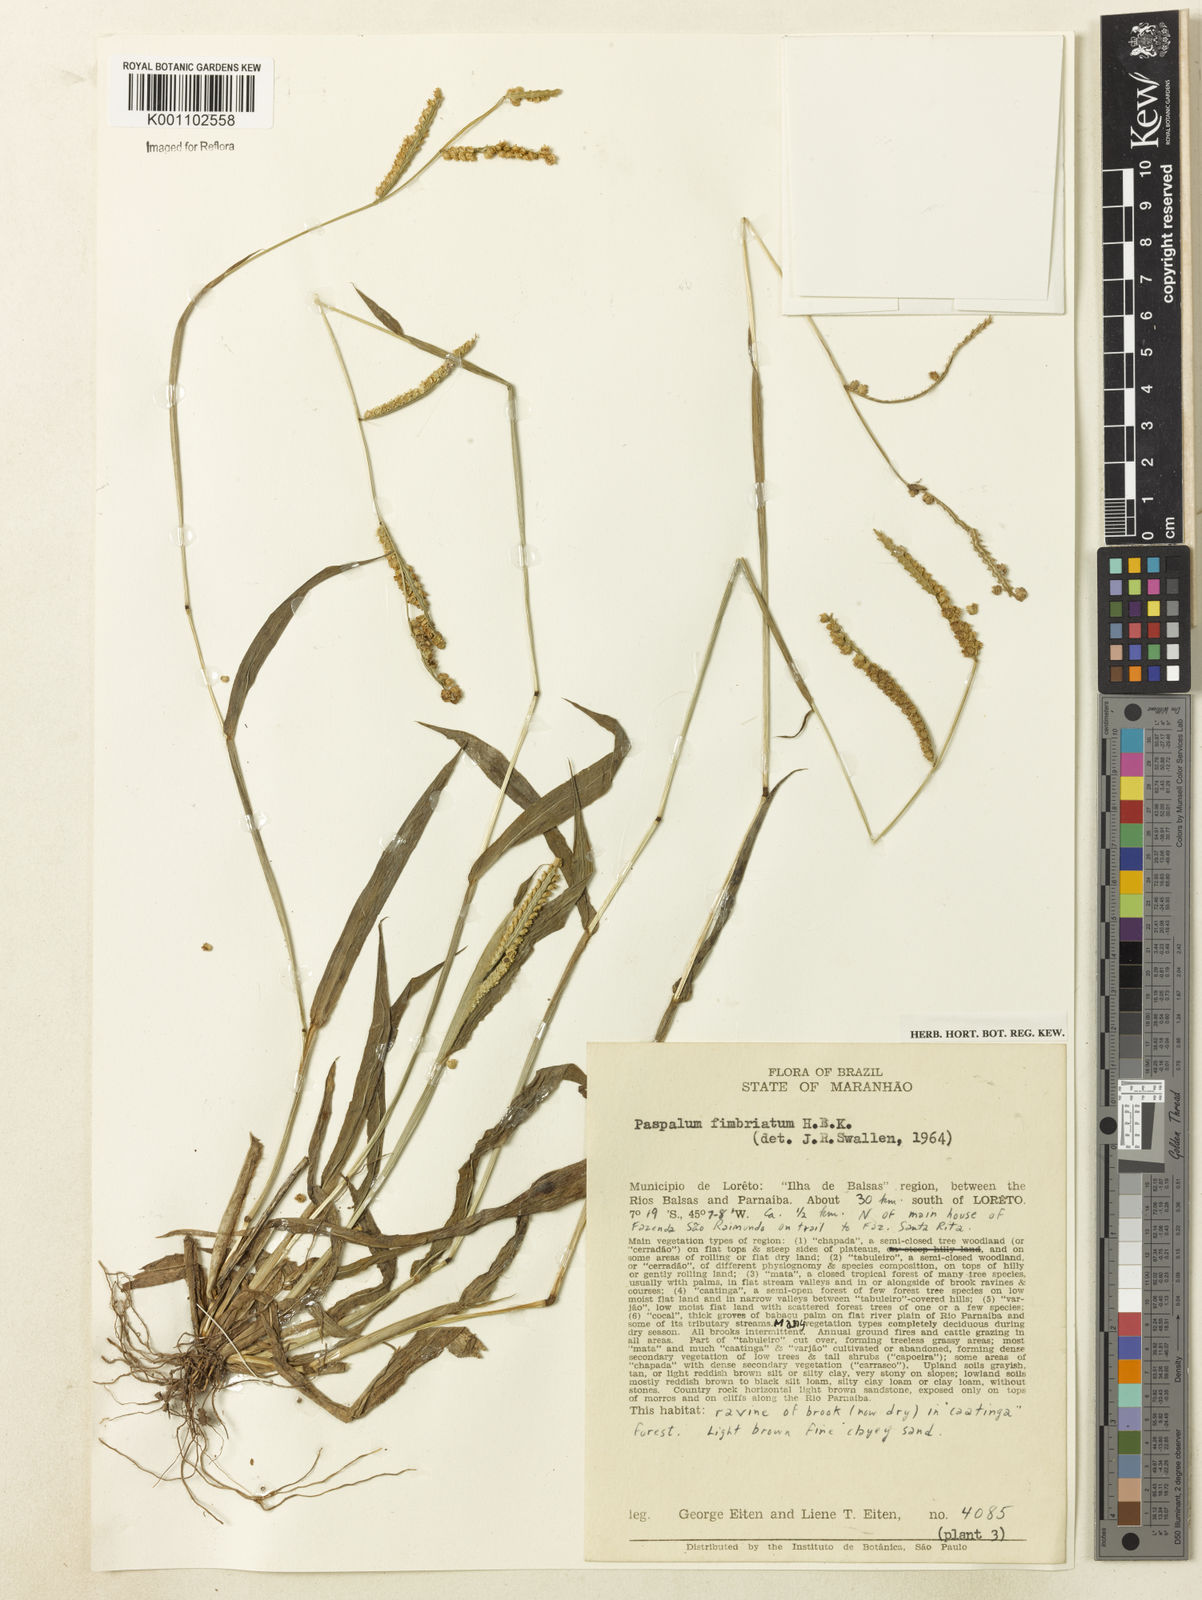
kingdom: Plantae
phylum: Tracheophyta
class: Liliopsida
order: Poales
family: Poaceae
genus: Paspalum
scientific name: Paspalum fimbriatum
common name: Panama crowngrass
